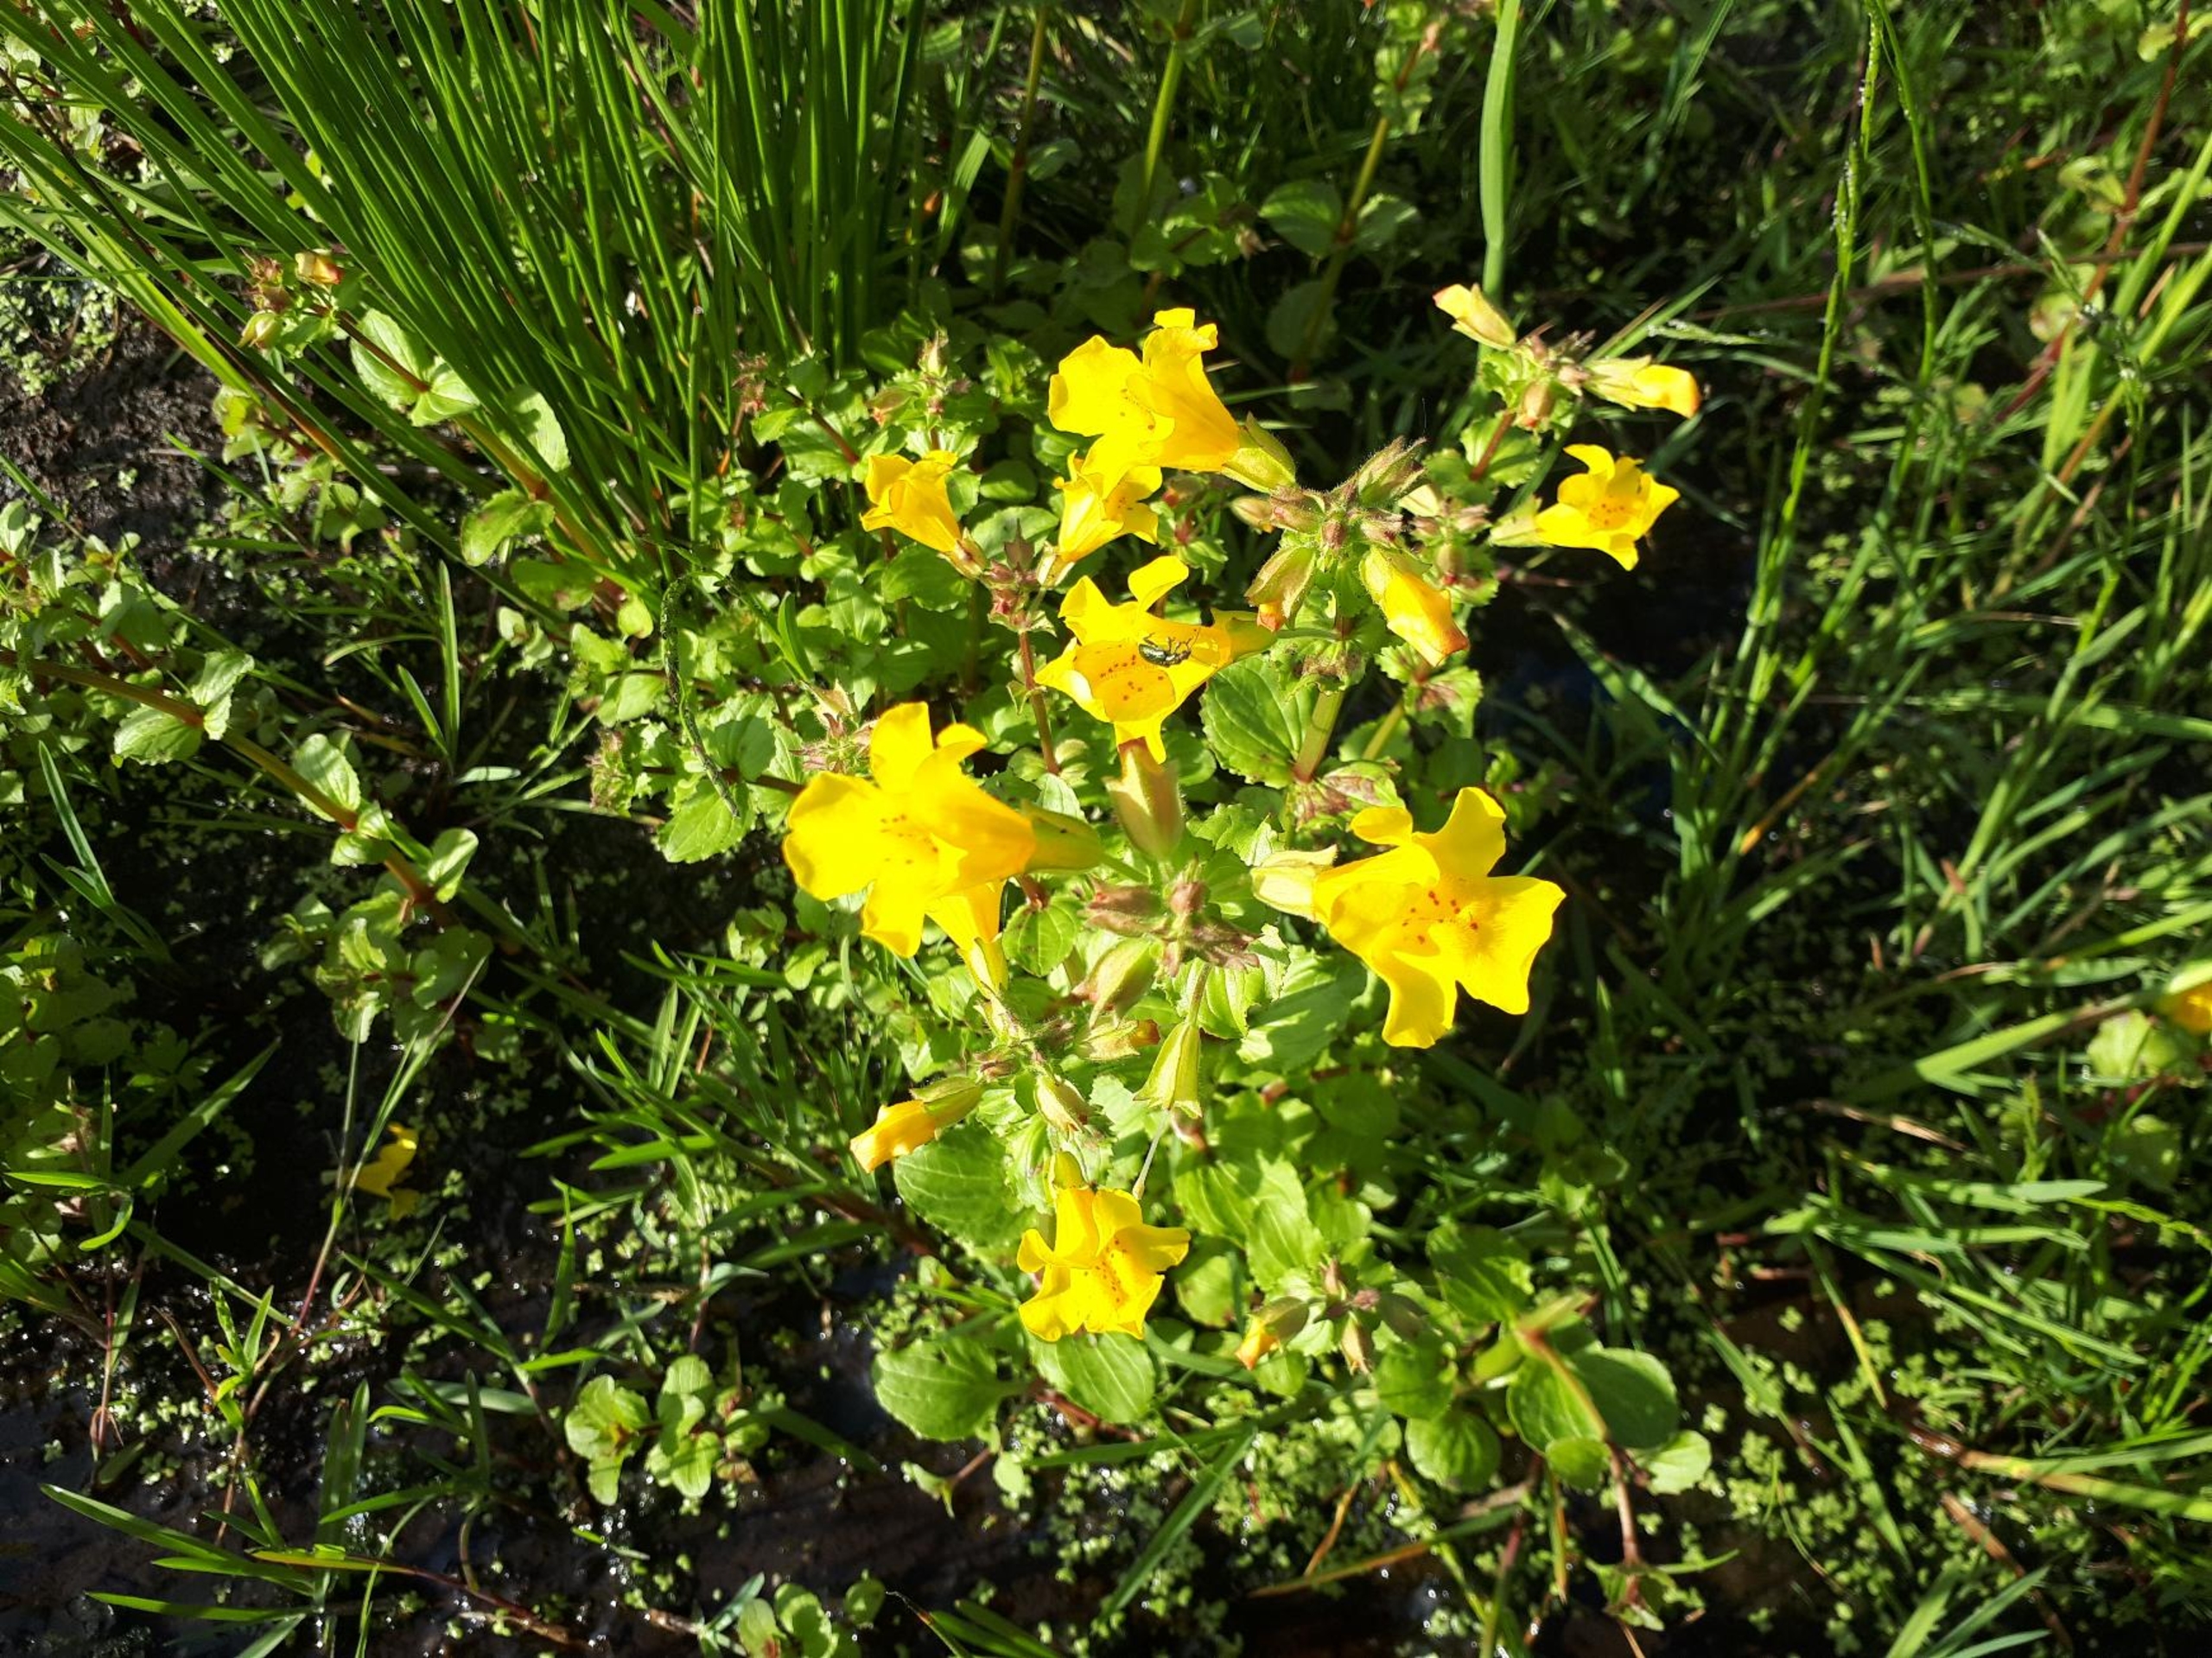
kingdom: Plantae
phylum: Tracheophyta
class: Magnoliopsida
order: Lamiales
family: Phrymaceae
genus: Erythranthe
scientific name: Erythranthe guttata
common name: Abeblomst
